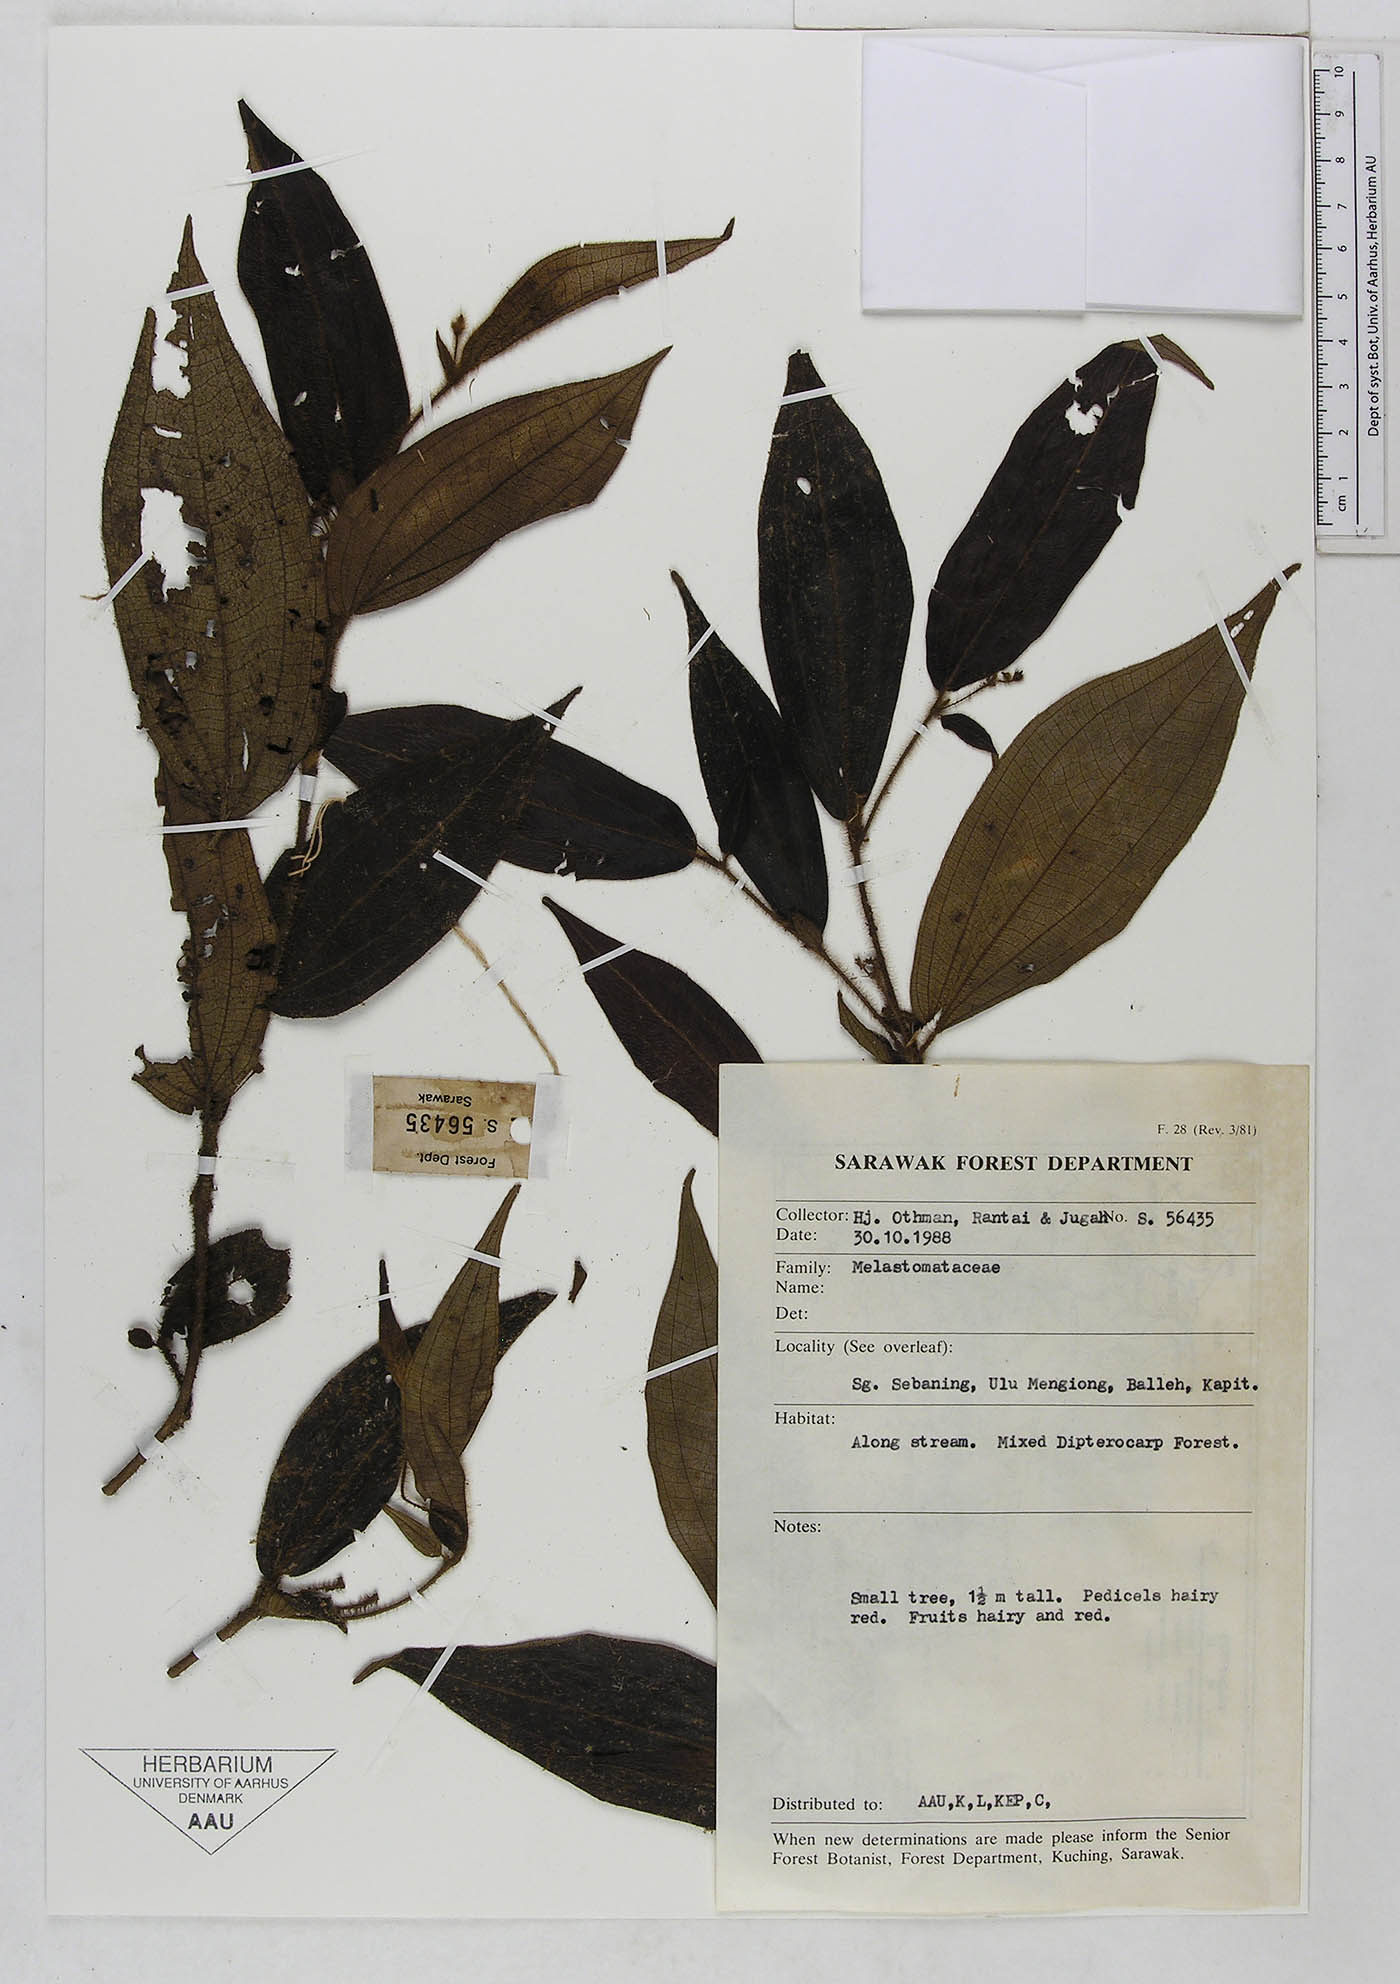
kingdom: Plantae
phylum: Tracheophyta
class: Magnoliopsida
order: Myrtales
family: Melastomataceae
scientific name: Melastomataceae
